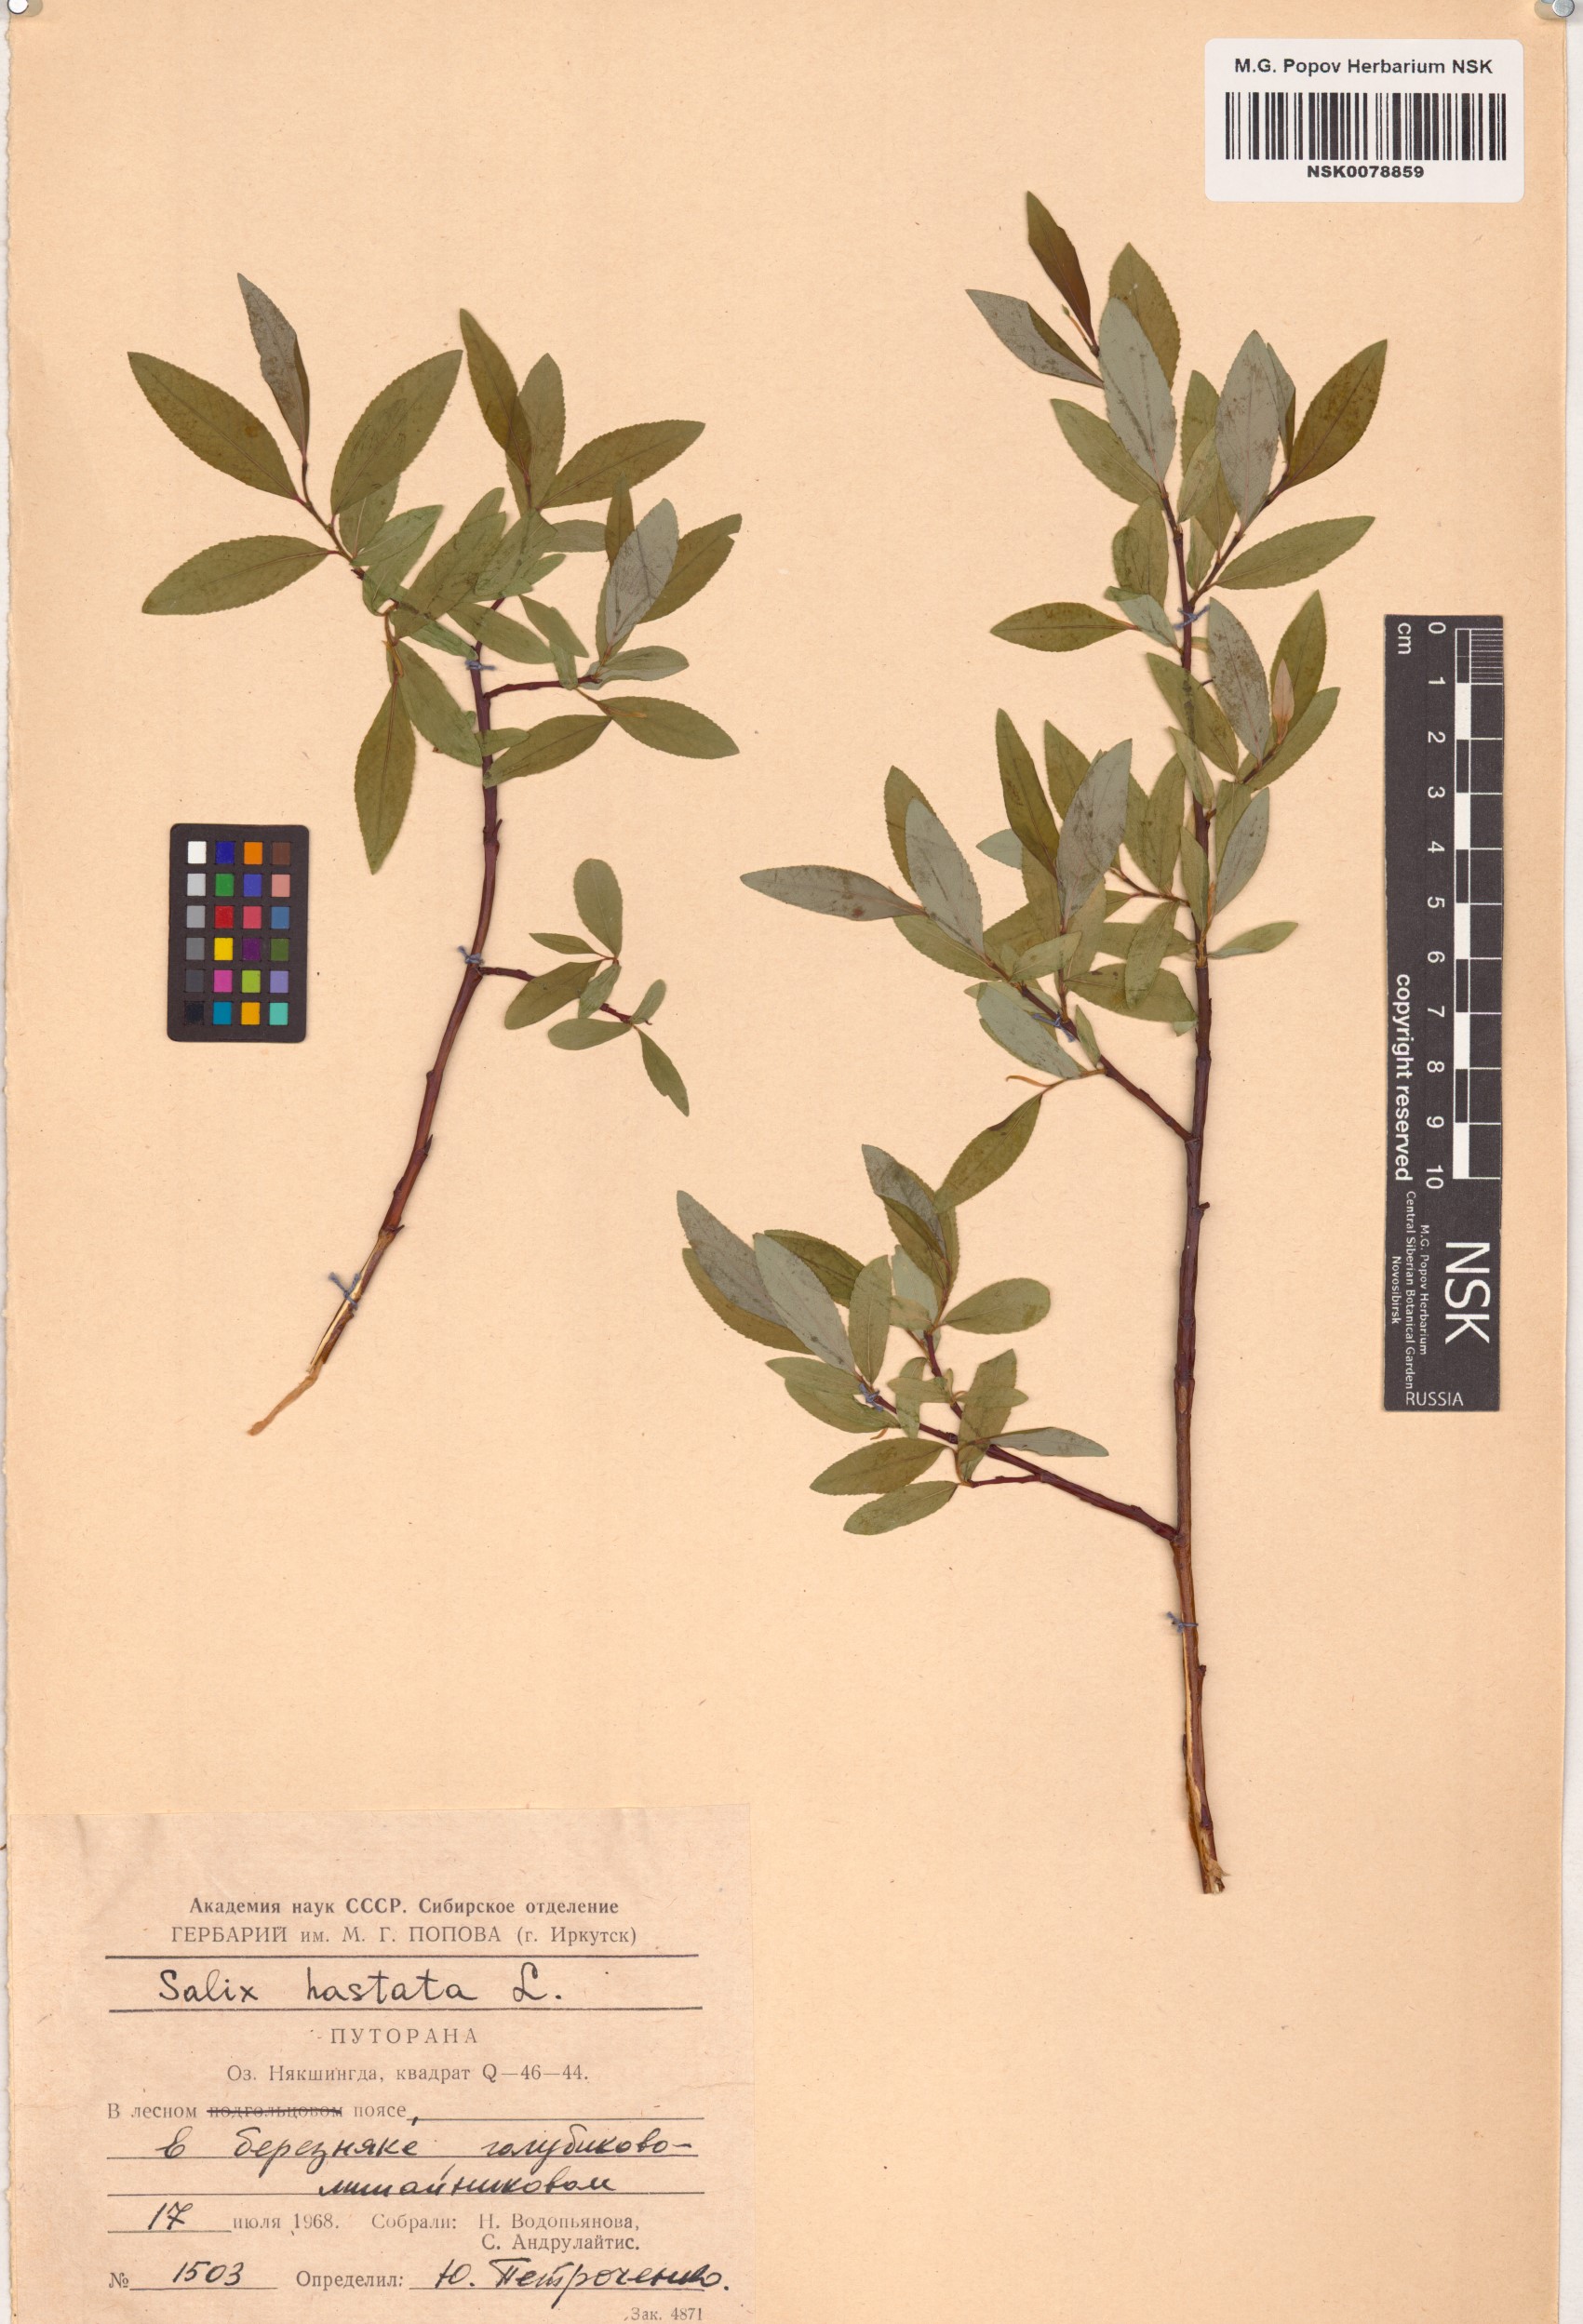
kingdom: Plantae
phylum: Tracheophyta
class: Magnoliopsida
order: Malpighiales
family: Salicaceae
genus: Salix
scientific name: Salix hastata
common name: Halberd willow
